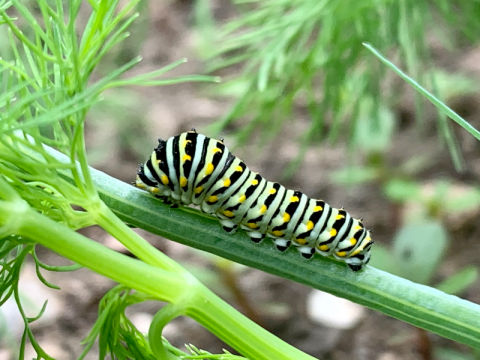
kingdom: Animalia
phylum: Arthropoda
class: Insecta
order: Lepidoptera
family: Papilionidae
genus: Papilio
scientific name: Papilio polyxenes
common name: Black Swallowtail
